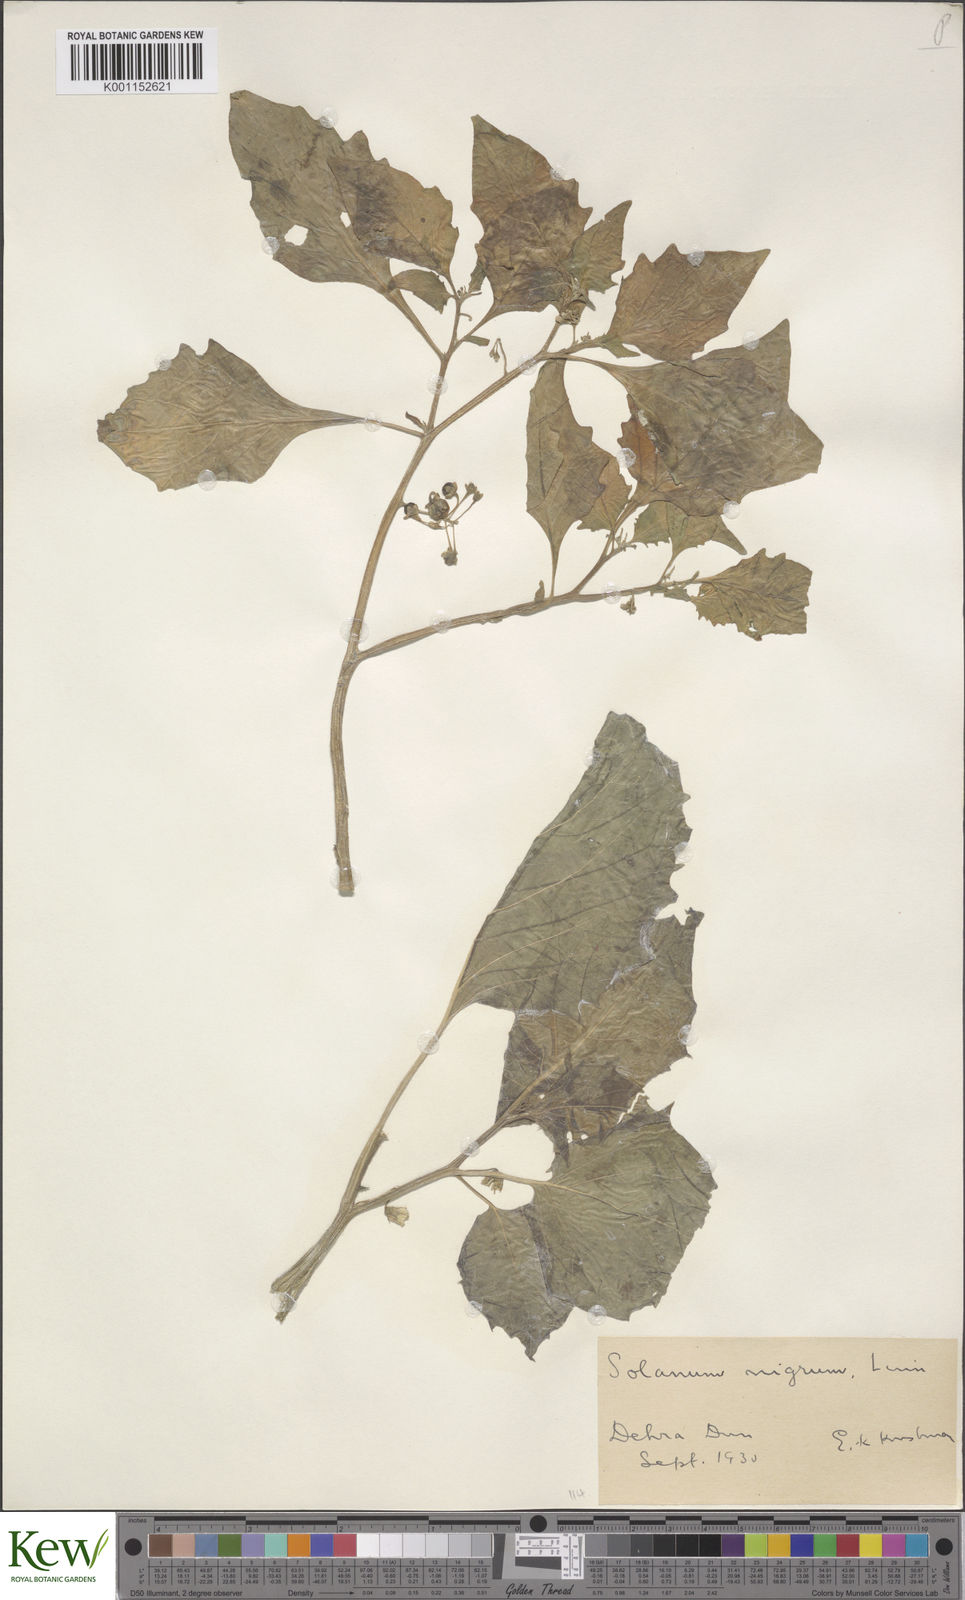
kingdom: Plantae
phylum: Tracheophyta
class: Magnoliopsida
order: Solanales
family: Solanaceae
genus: Solanum
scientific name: Solanum nigrum
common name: Black nightshade
